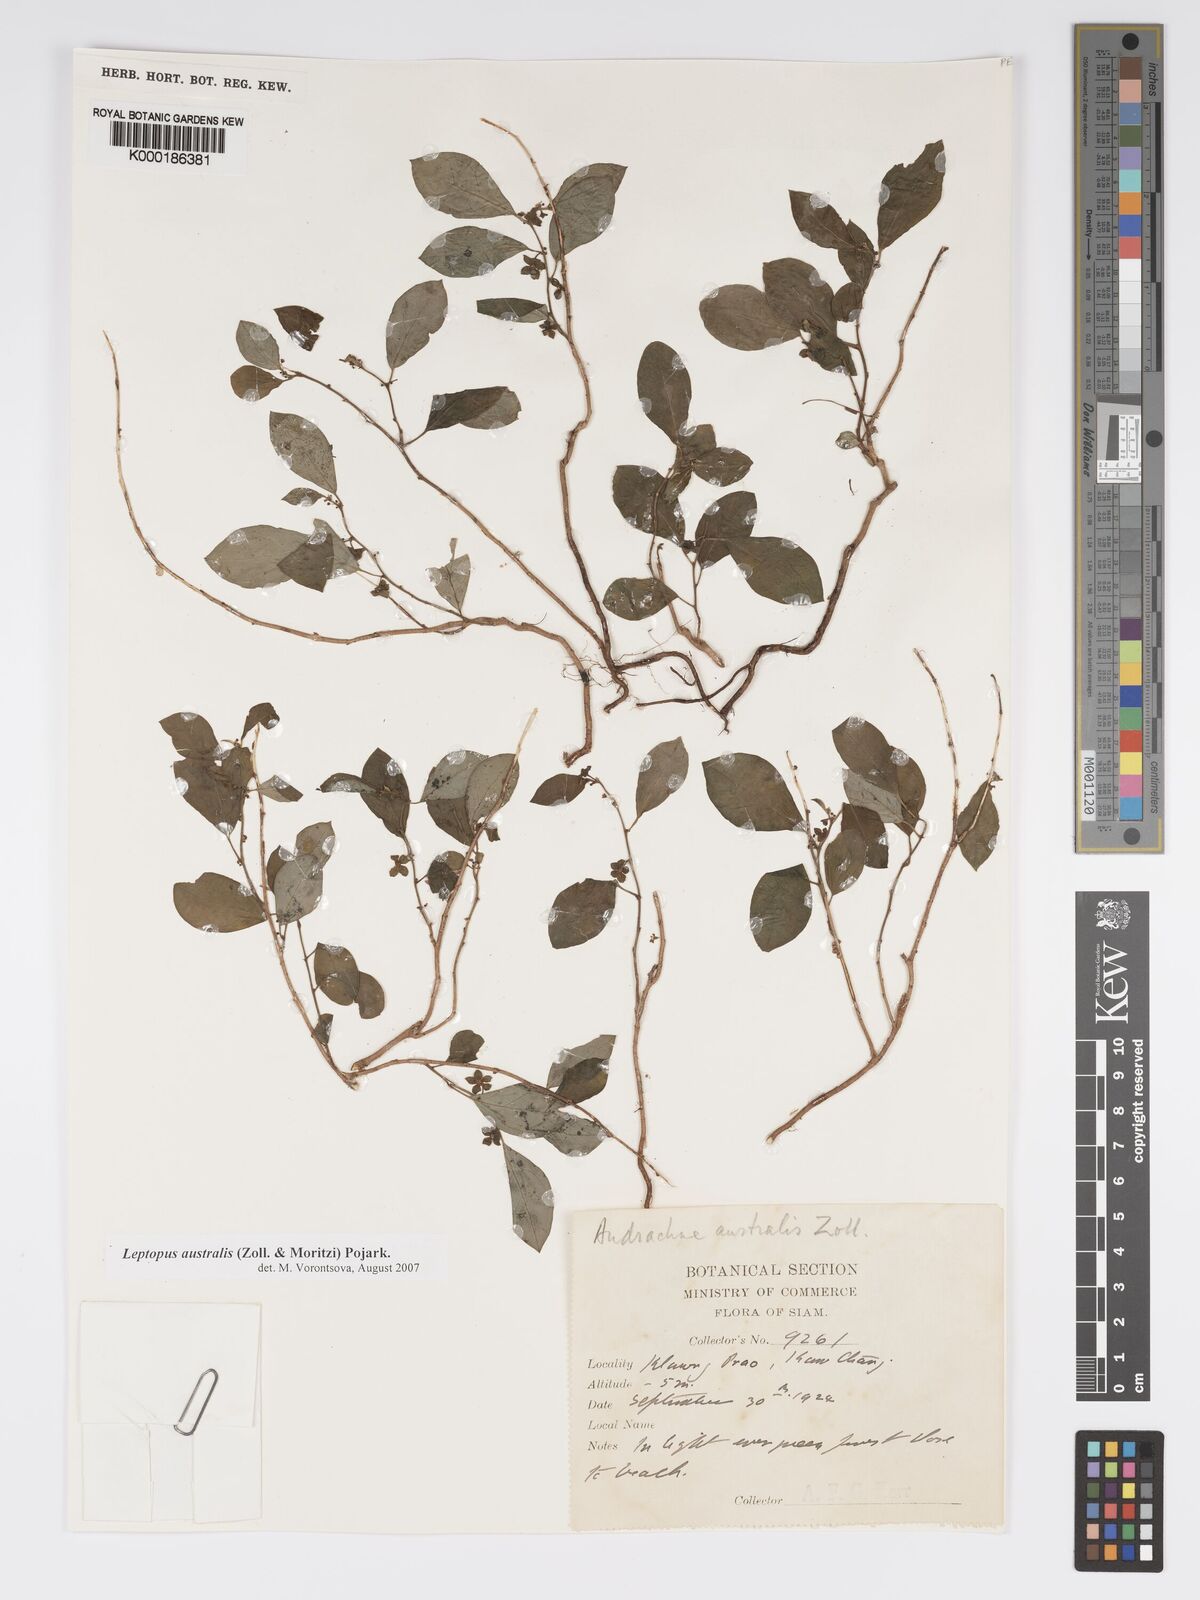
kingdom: Plantae
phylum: Tracheophyta
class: Magnoliopsida
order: Malpighiales
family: Phyllanthaceae
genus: Andrachne
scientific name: Andrachne
